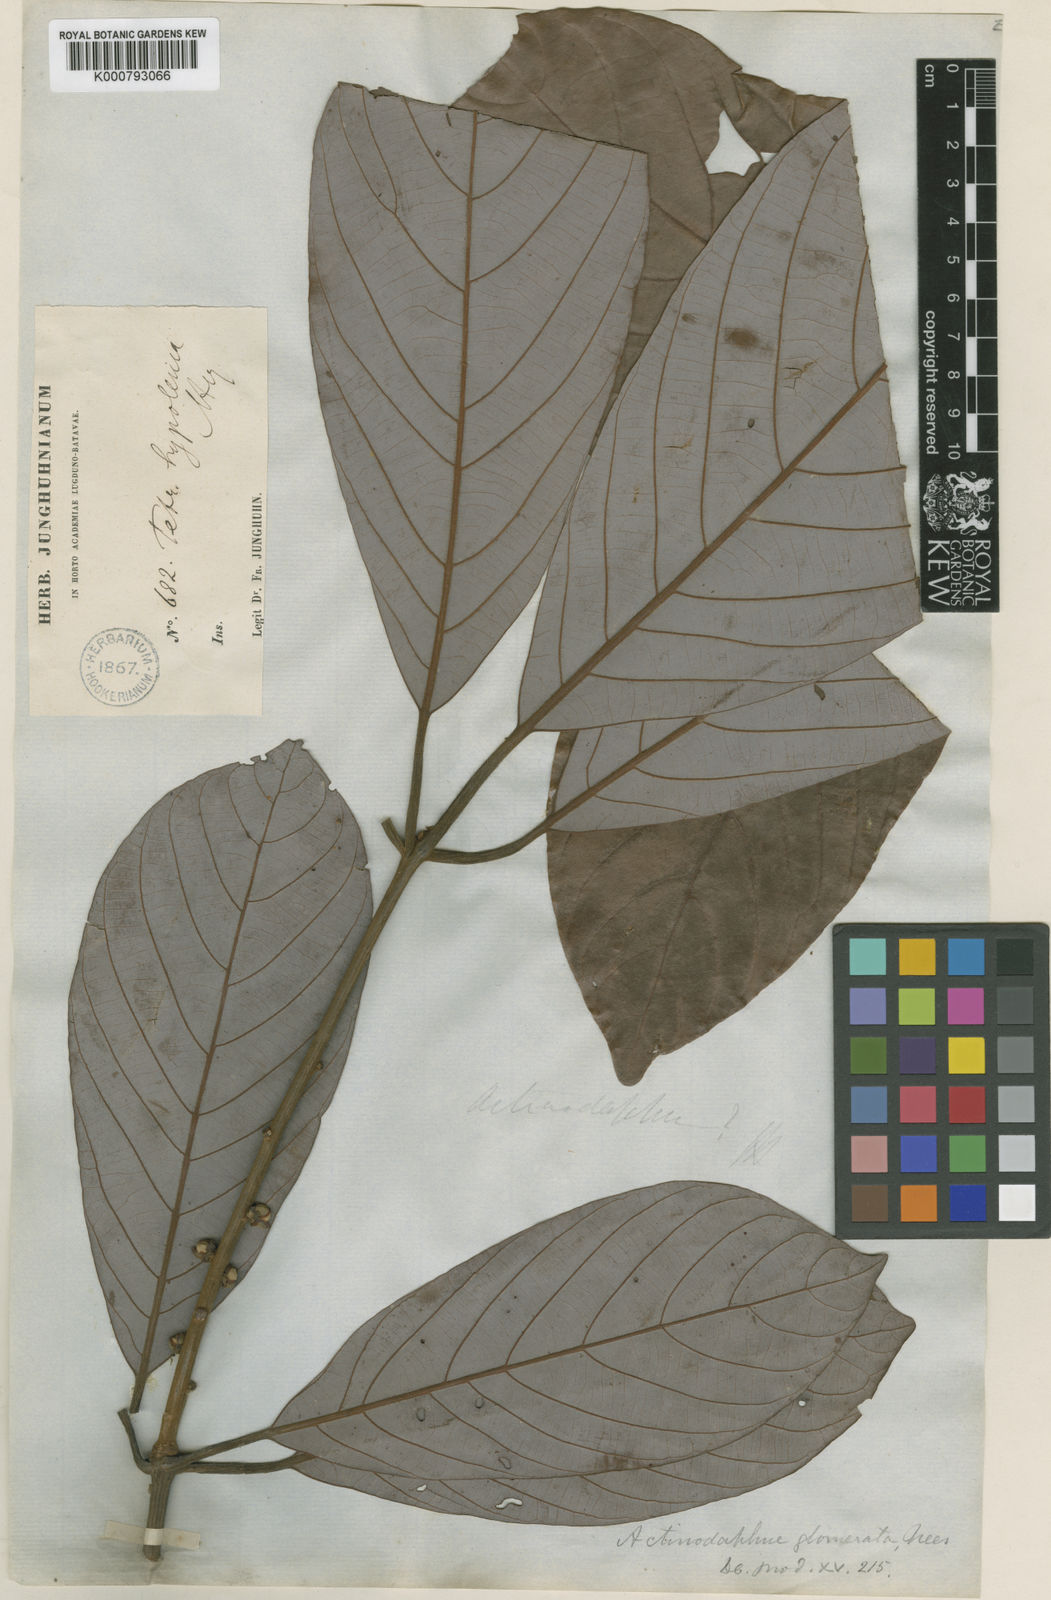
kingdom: Plantae
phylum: Tracheophyta
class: Magnoliopsida
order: Laurales
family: Lauraceae
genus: Actinodaphne
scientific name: Actinodaphne glomerata
